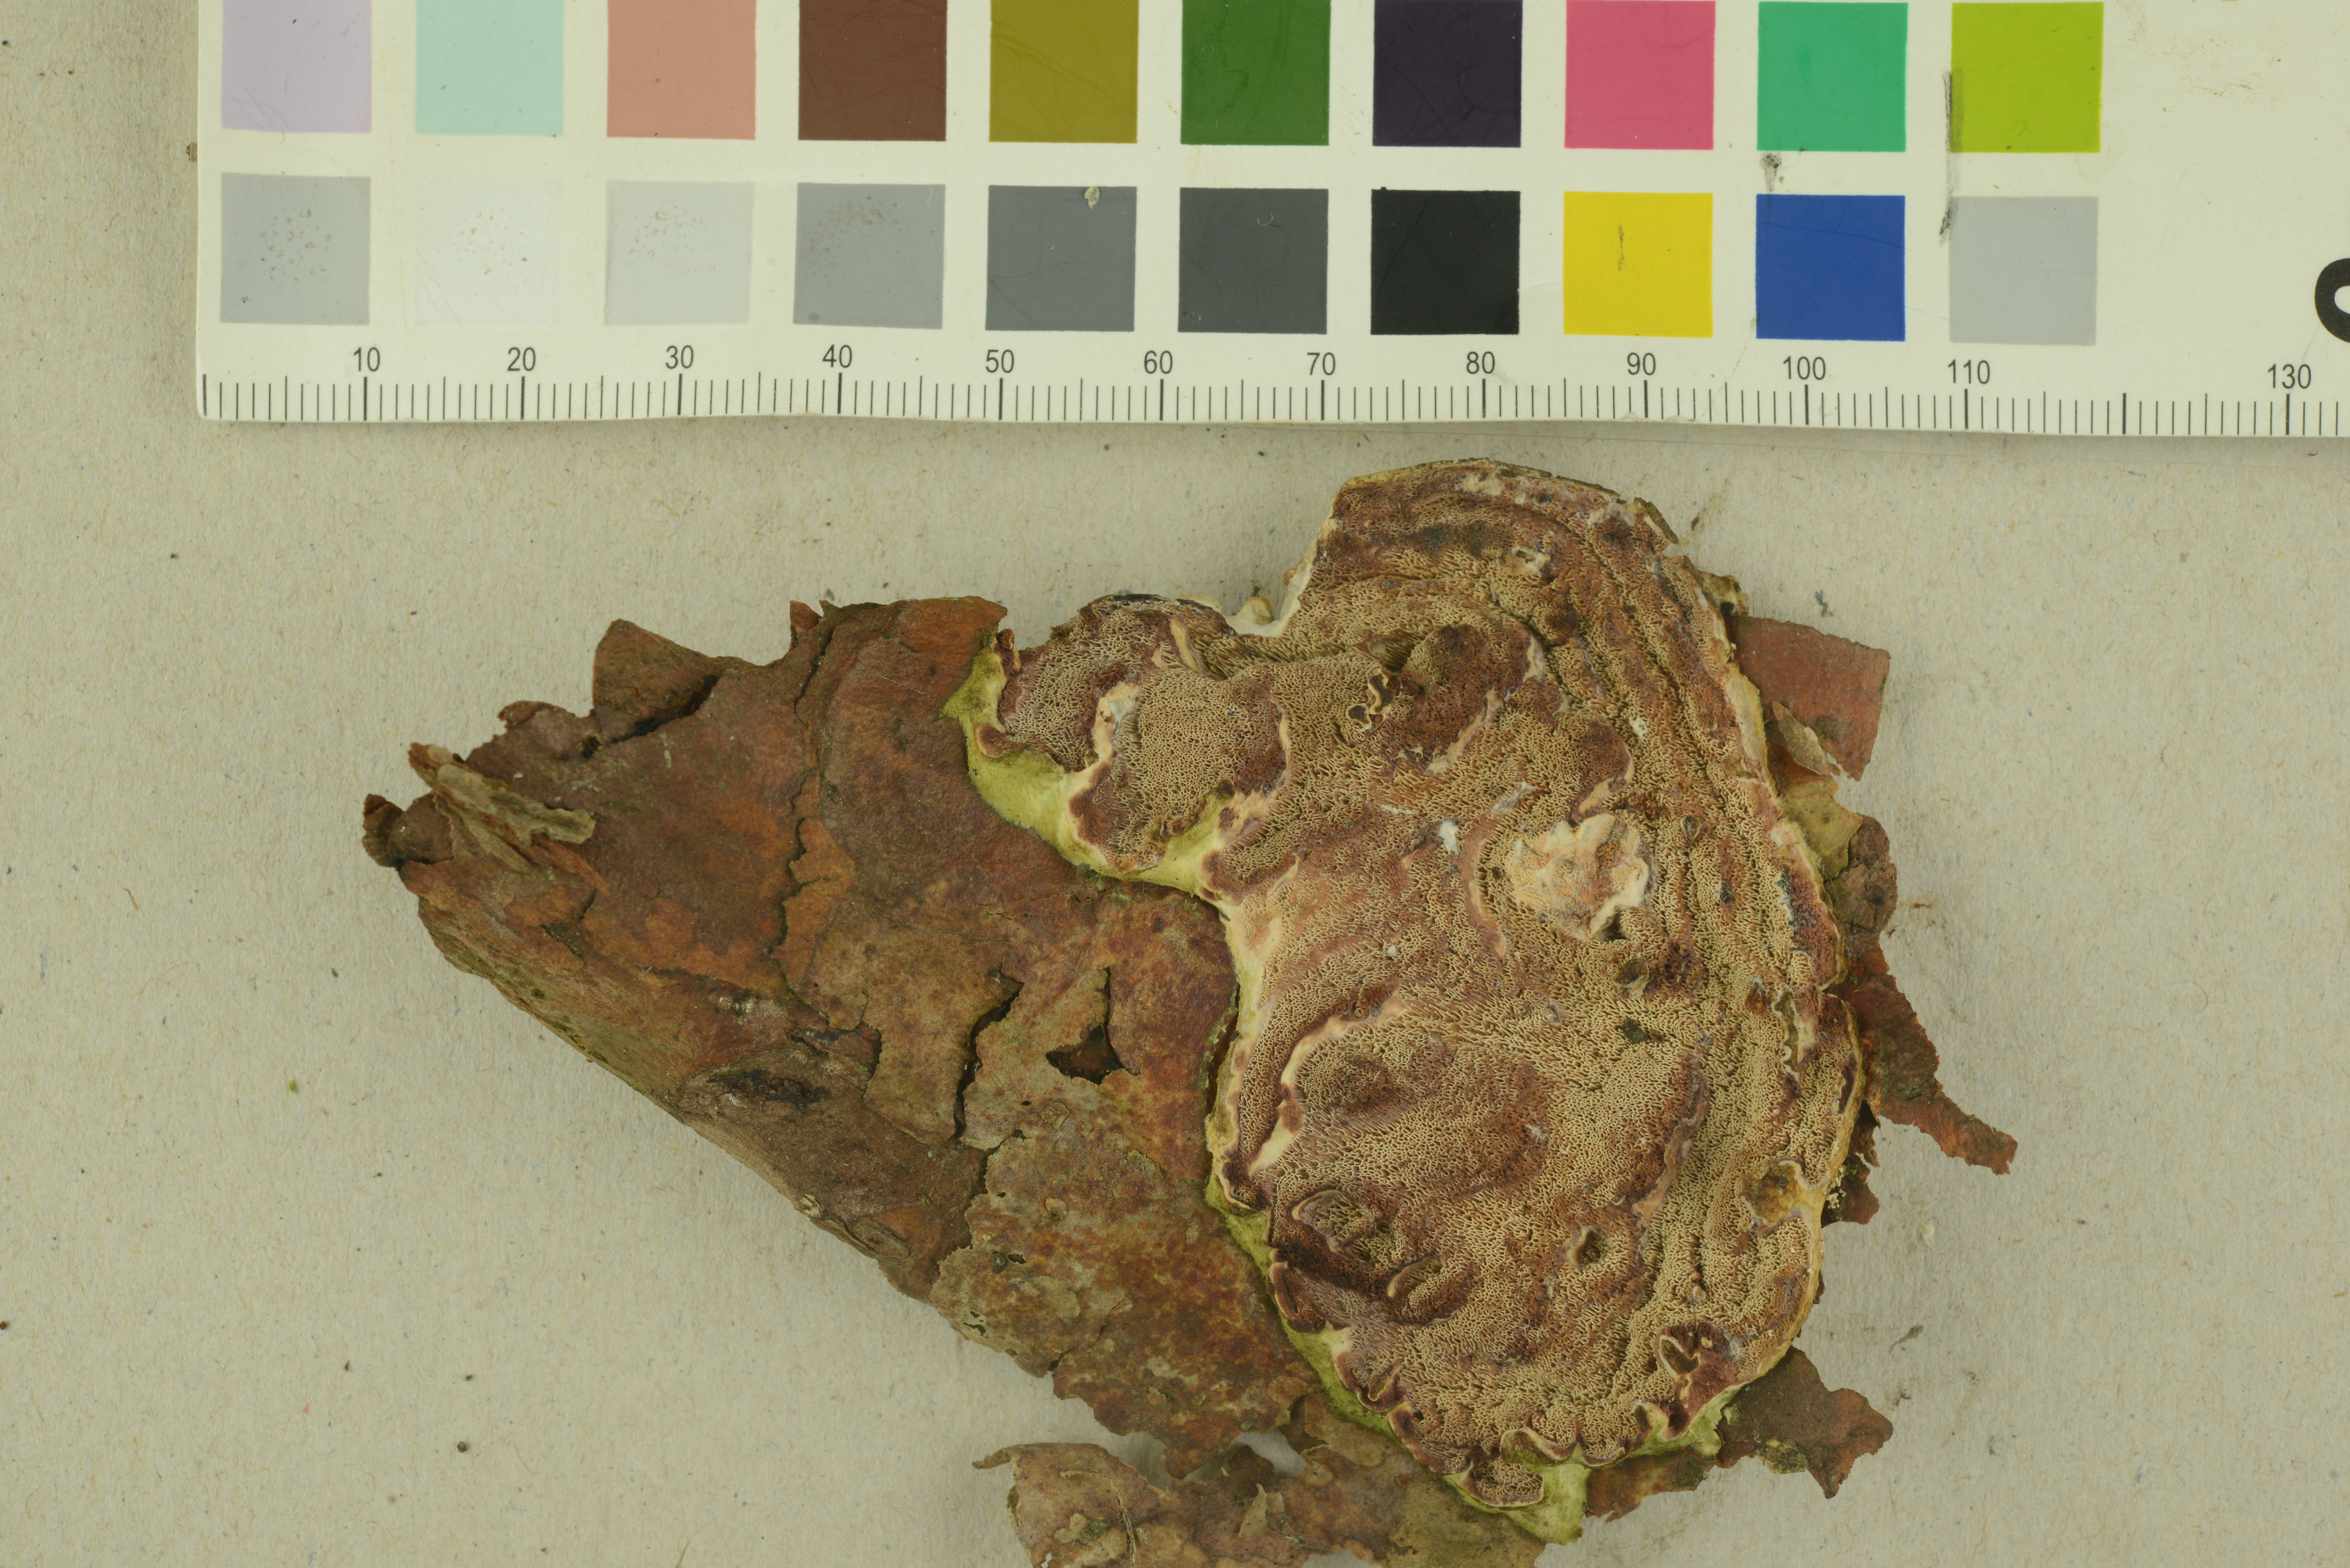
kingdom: Fungi
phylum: Basidiomycota
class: Agaricomycetes
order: Polyporales
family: Irpicaceae
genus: Meruliopsis
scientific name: Meruliopsis taxicola
